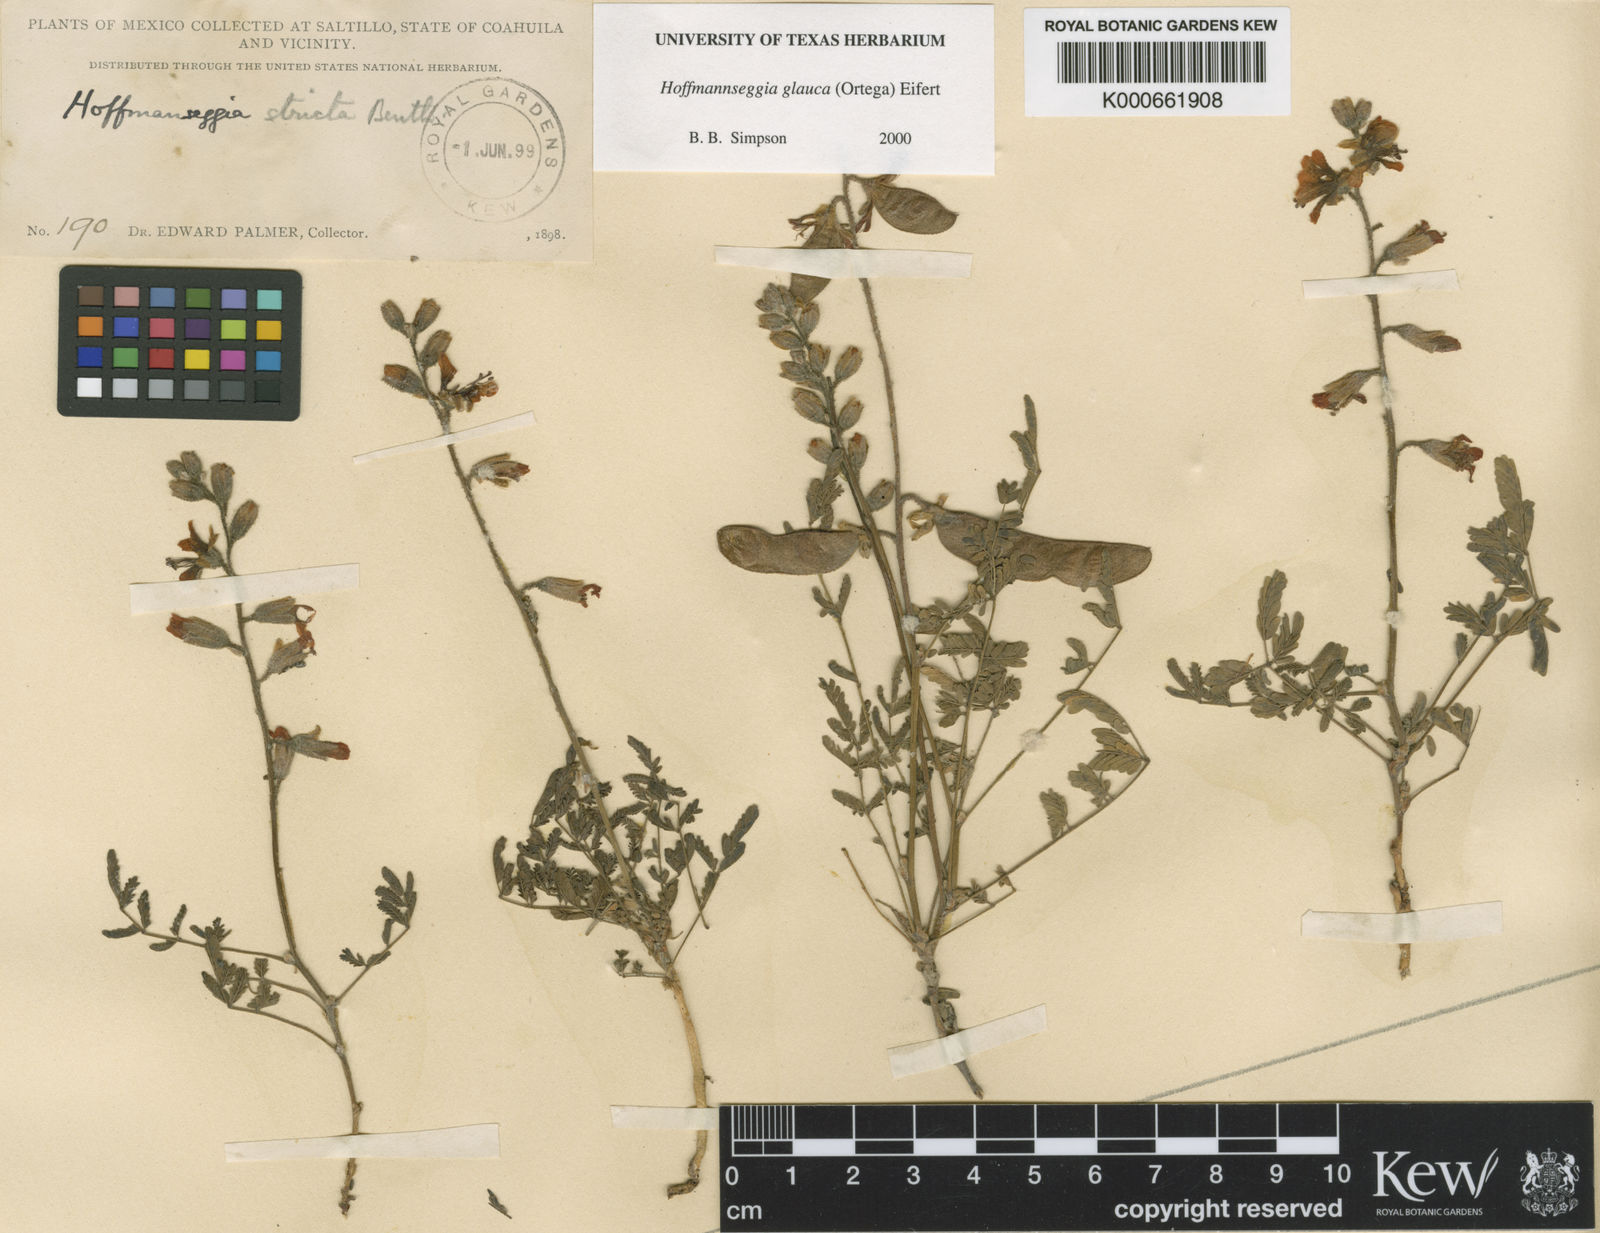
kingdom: Plantae
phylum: Tracheophyta
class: Magnoliopsida
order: Fabales
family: Fabaceae
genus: Hoffmannseggia
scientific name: Hoffmannseggia glauca
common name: Pignut
